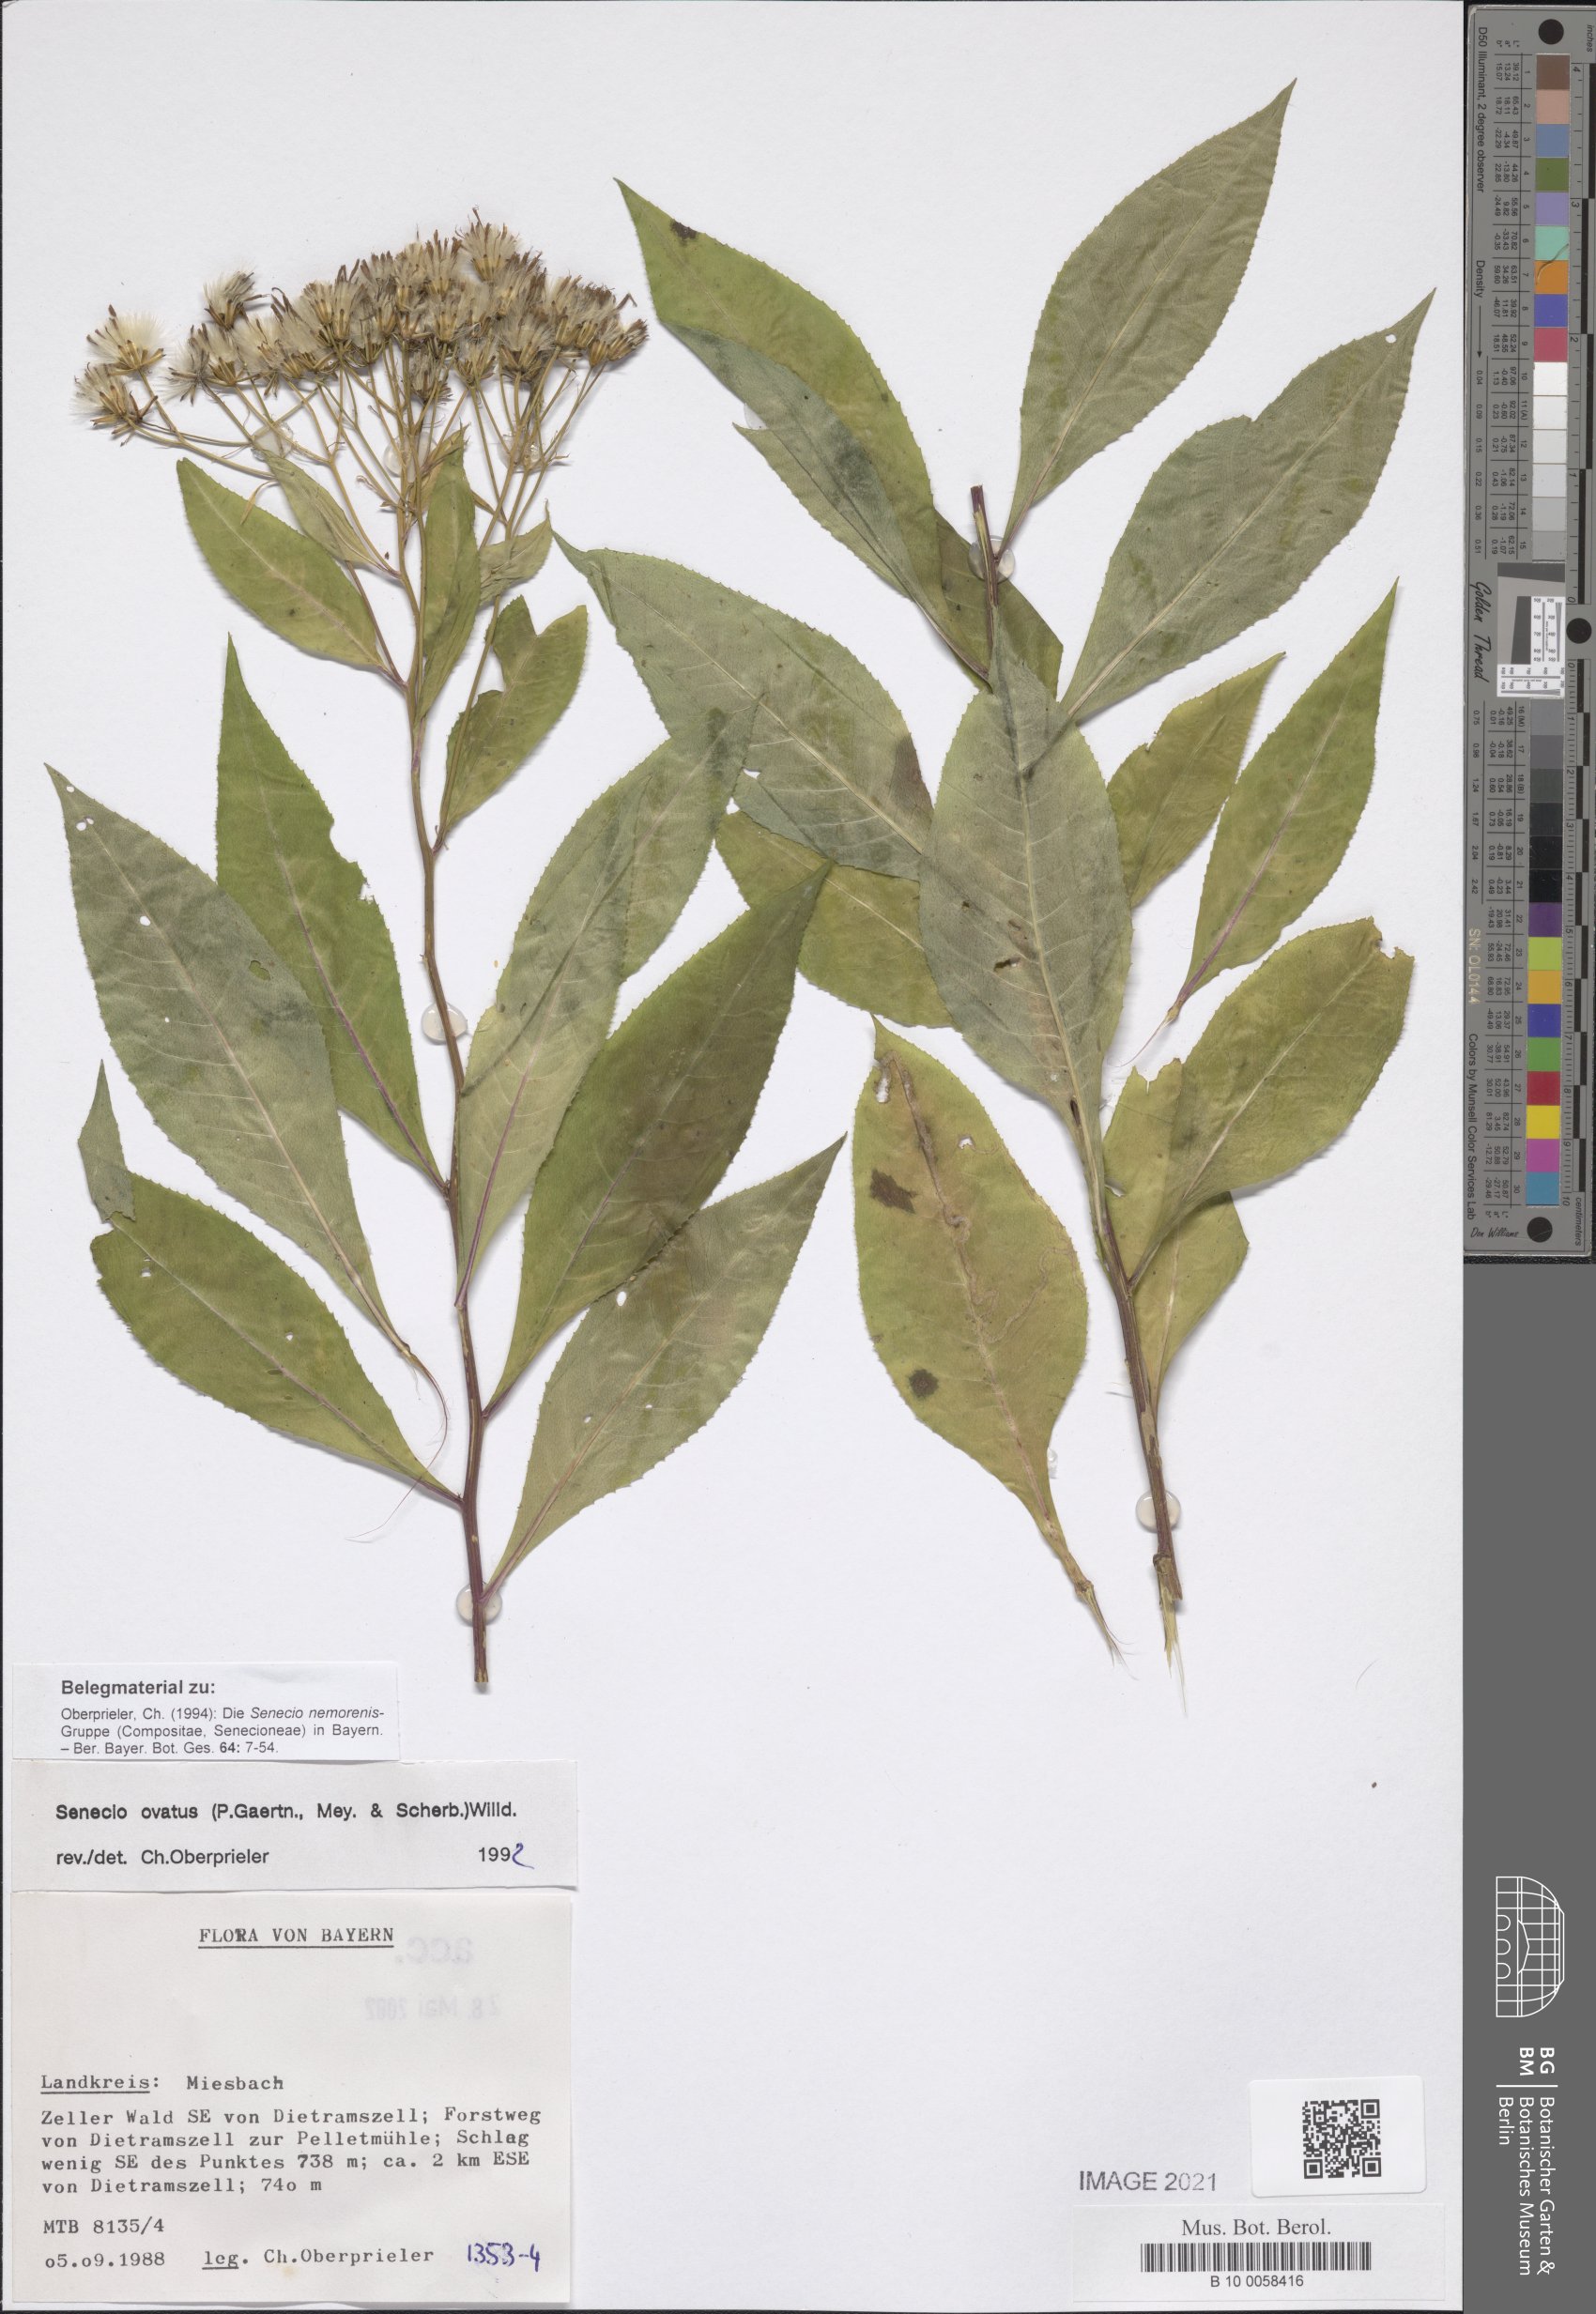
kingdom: Plantae
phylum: Tracheophyta
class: Magnoliopsida
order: Asterales
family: Asteraceae
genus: Senecio
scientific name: Senecio ovatus
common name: Wood ragwort
